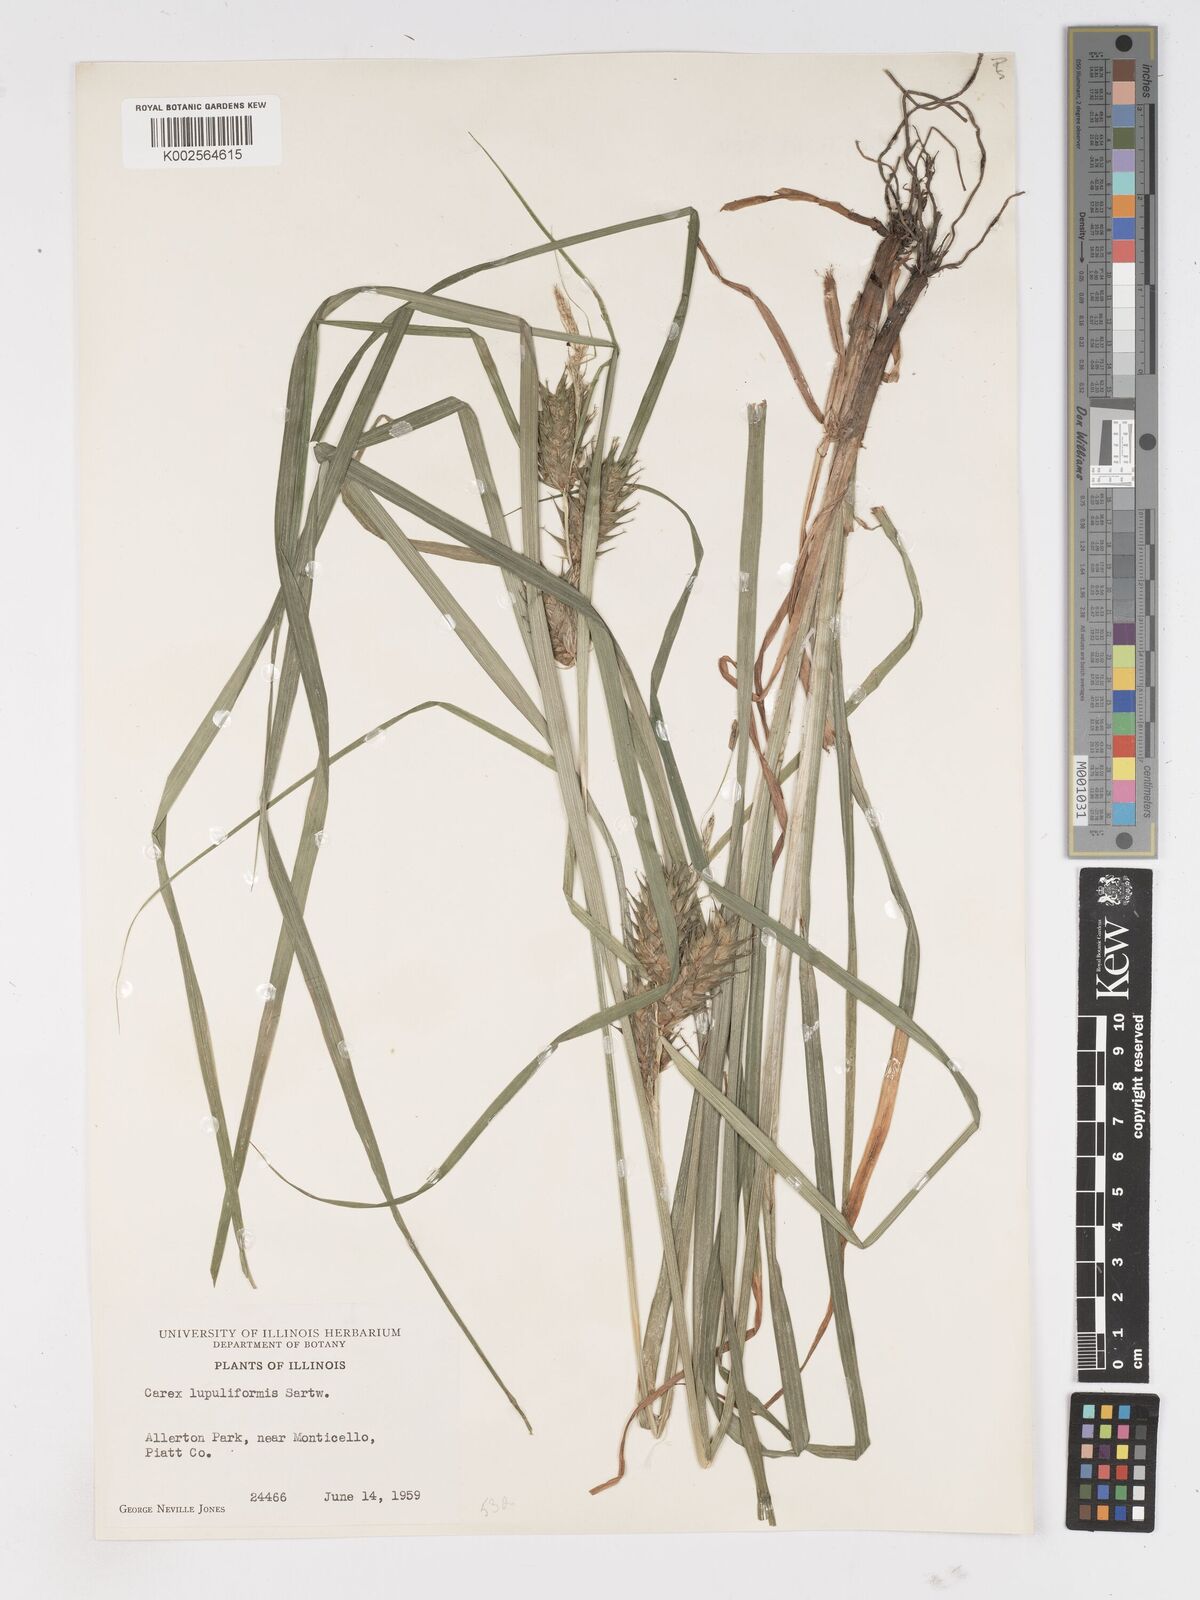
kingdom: Plantae
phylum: Tracheophyta
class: Liliopsida
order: Poales
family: Cyperaceae
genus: Carex
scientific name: Carex lupuliformis
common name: False hop sedge
